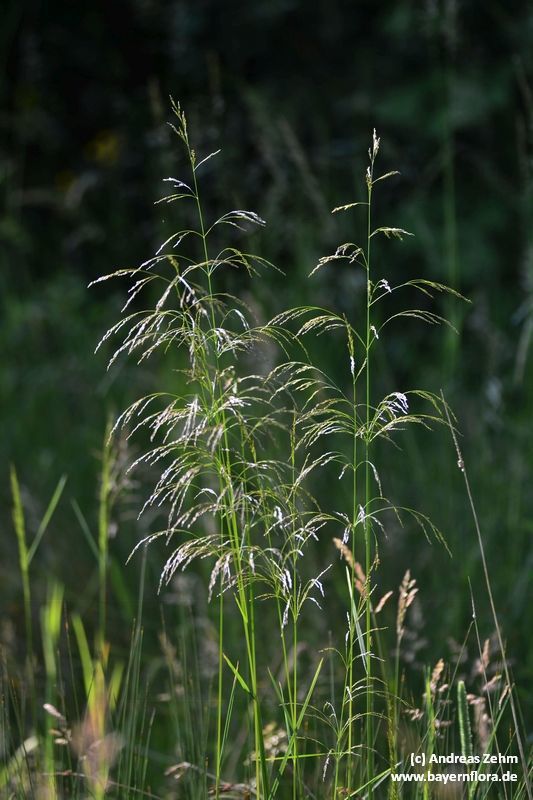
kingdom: Plantae
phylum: Tracheophyta
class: Liliopsida
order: Poales
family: Poaceae
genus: Deschampsia
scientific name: Deschampsia cespitosa
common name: Tufted hair-grass
